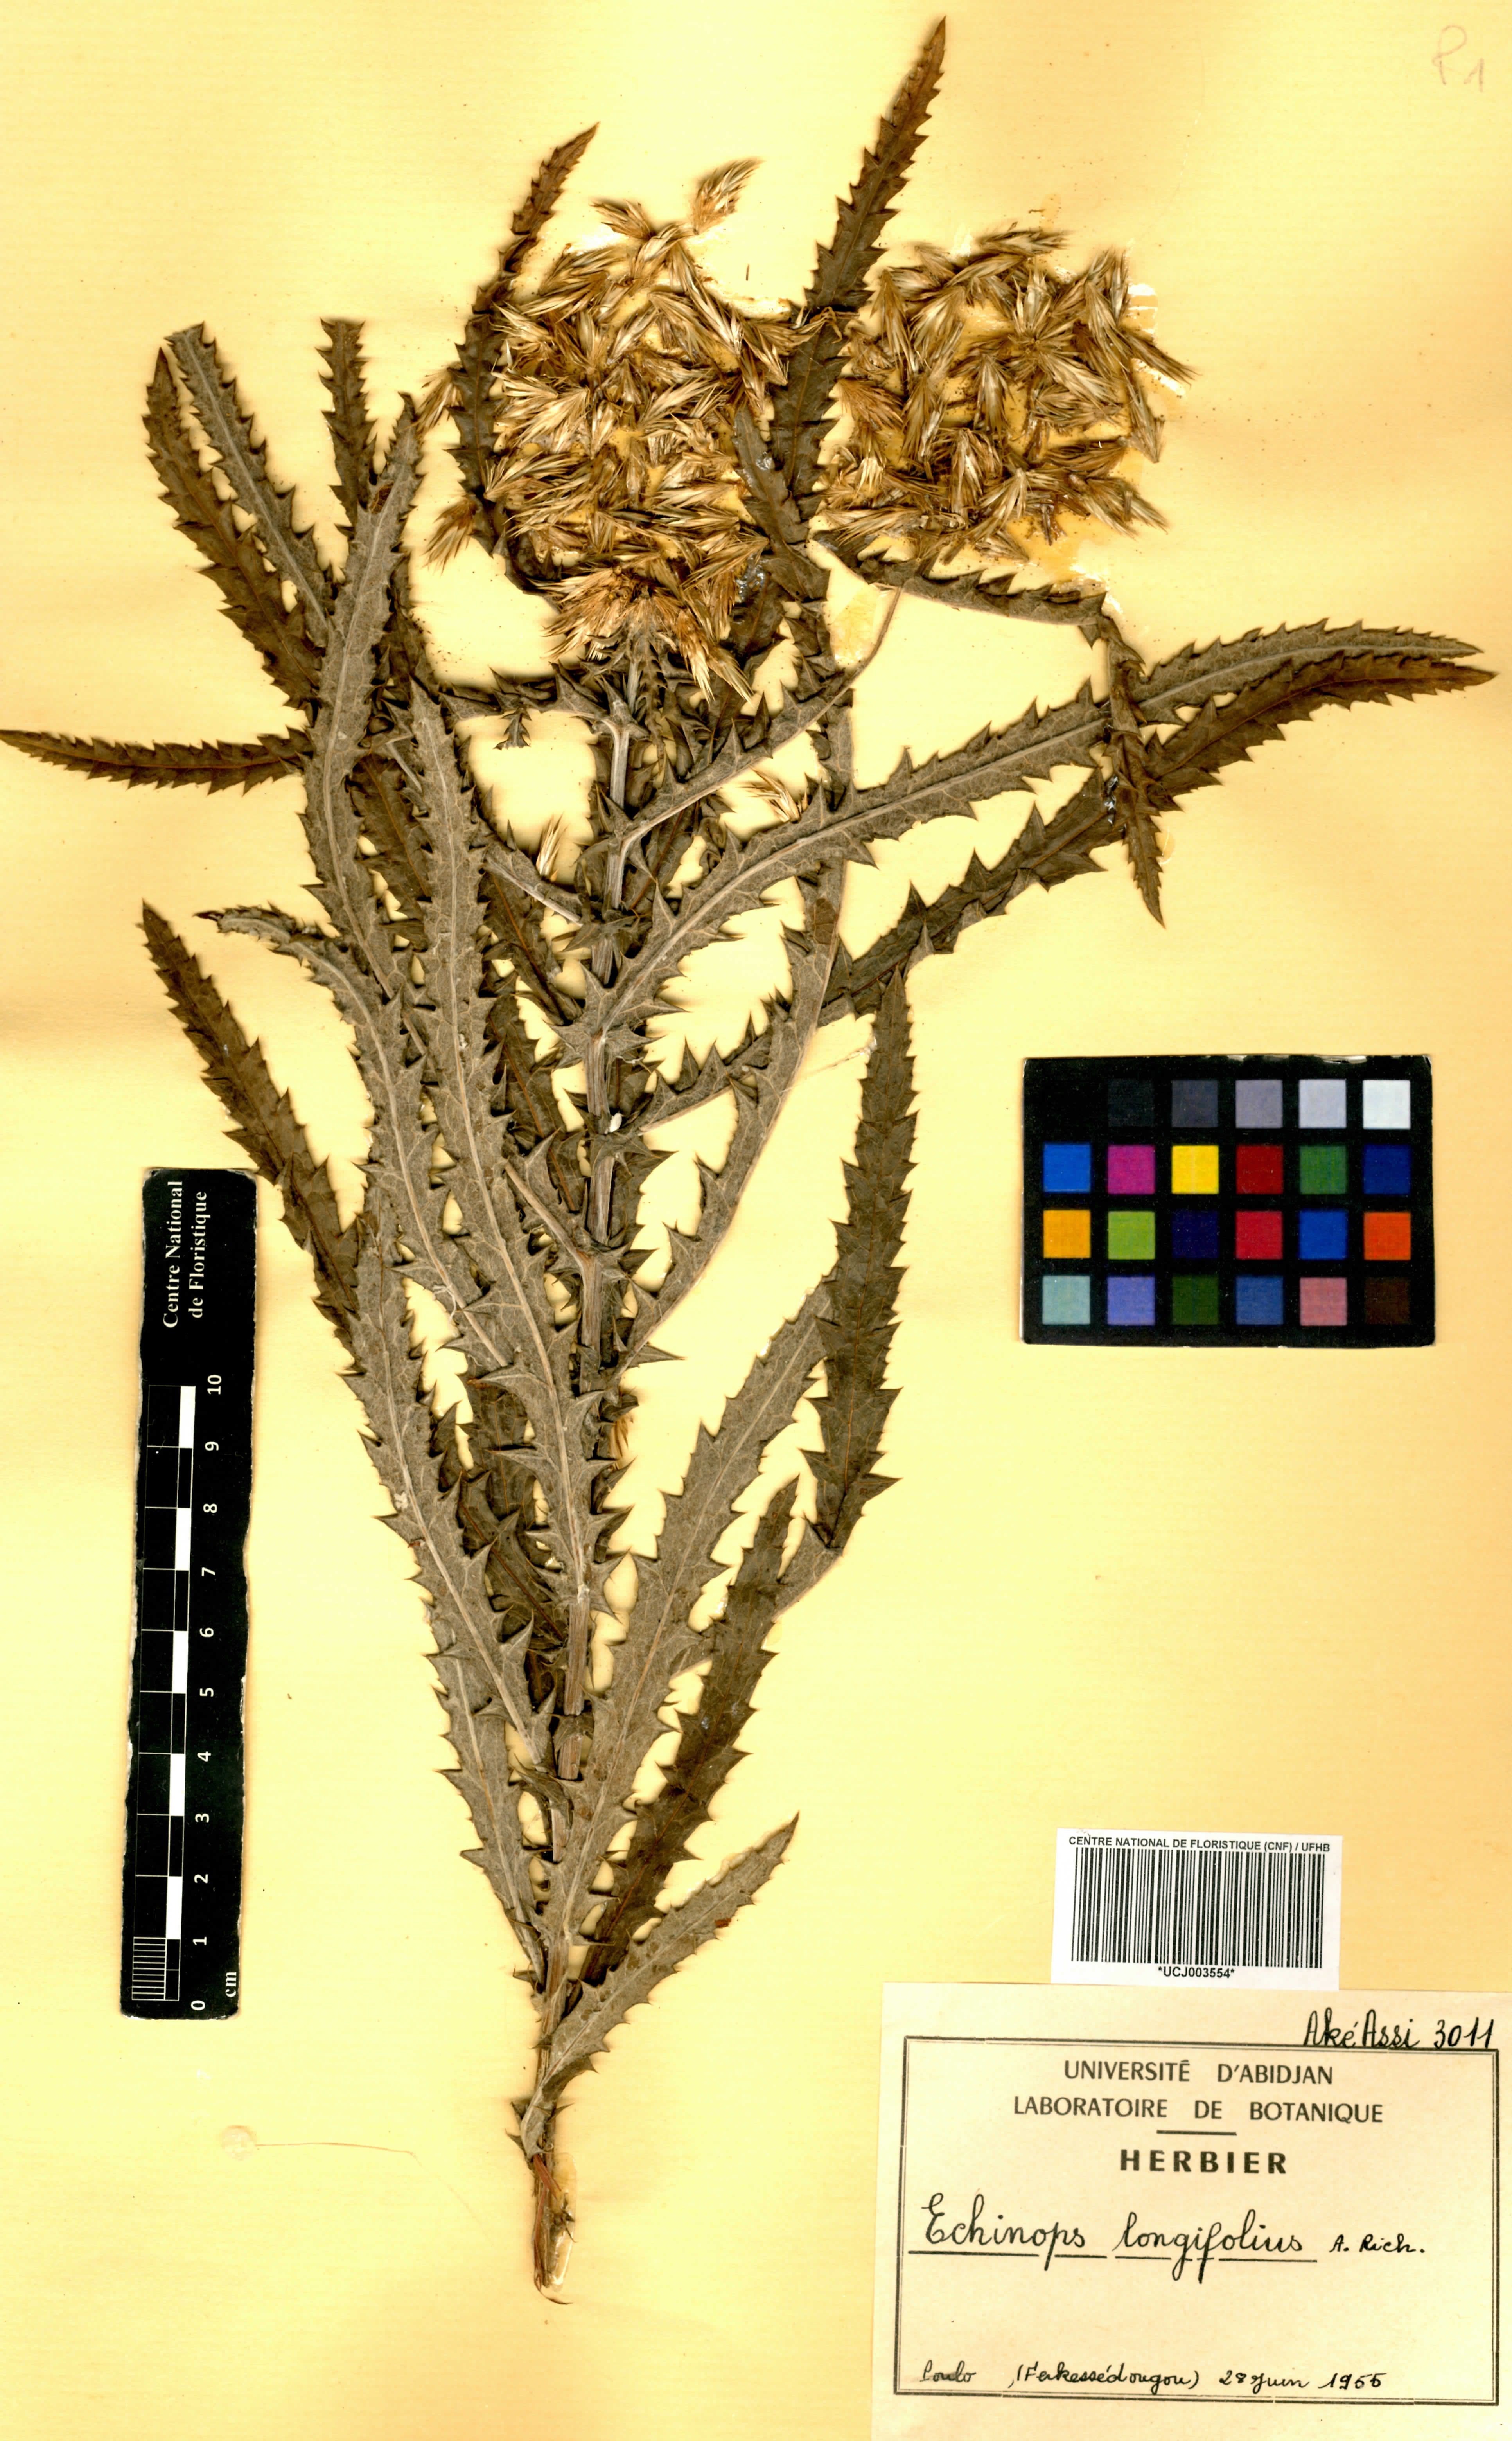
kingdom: Plantae
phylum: Tracheophyta
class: Magnoliopsida
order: Asterales
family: Asteraceae
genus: Echinops
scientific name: Echinops longifolius
